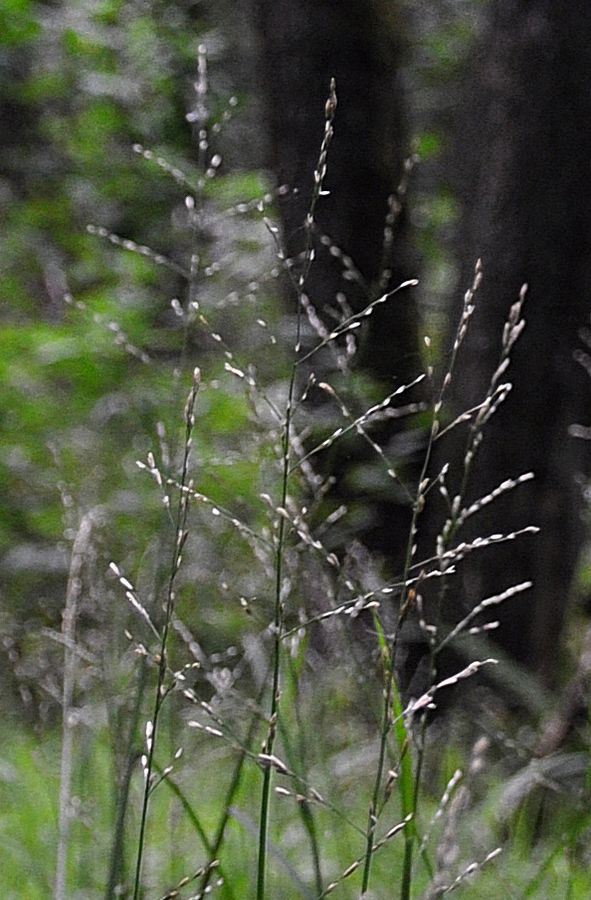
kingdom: Plantae
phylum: Tracheophyta
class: Liliopsida
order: Poales
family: Poaceae
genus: Glyceria
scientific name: Glyceria nemoralis
